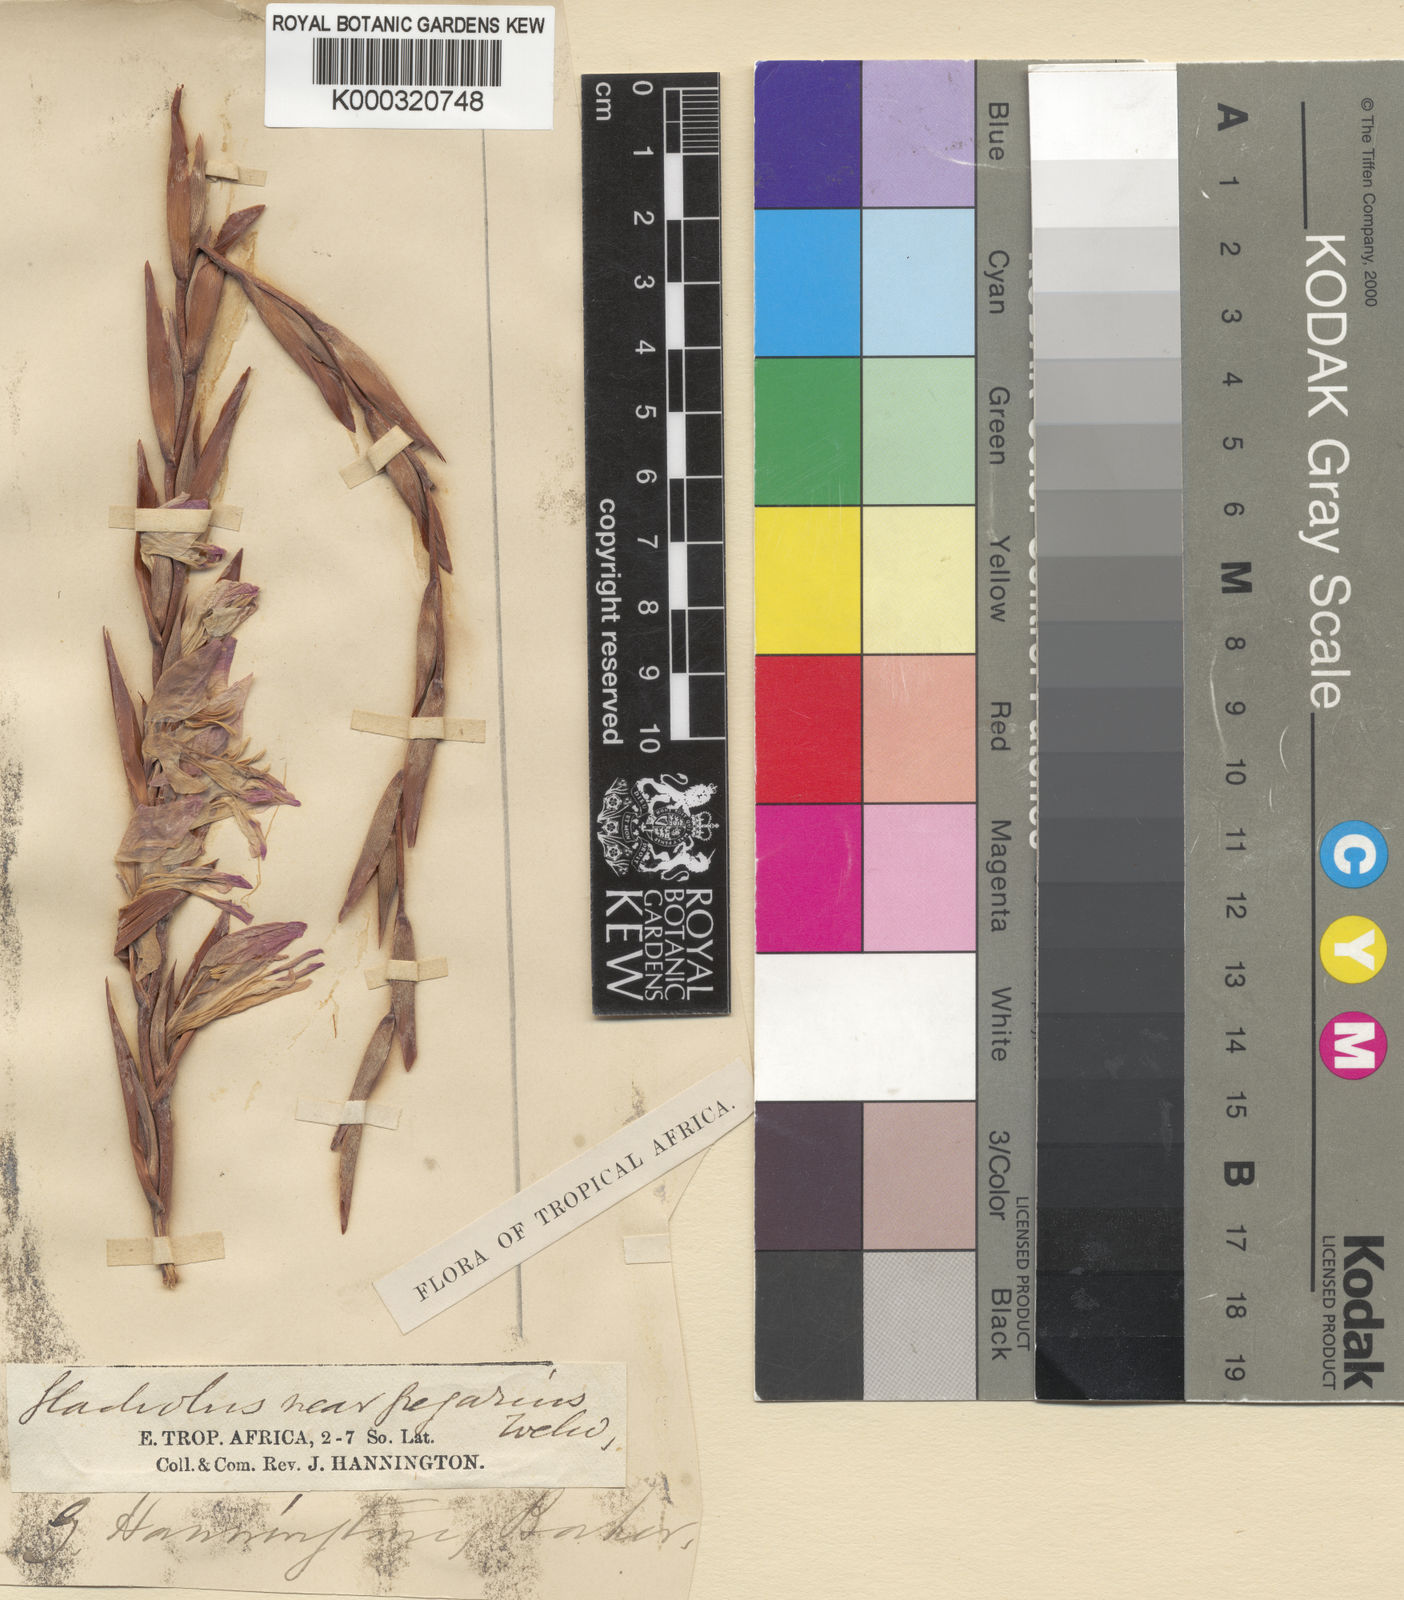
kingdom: Plantae
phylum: Tracheophyta
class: Liliopsida
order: Asparagales
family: Iridaceae
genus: Gladiolus
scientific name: Gladiolus gregarius
